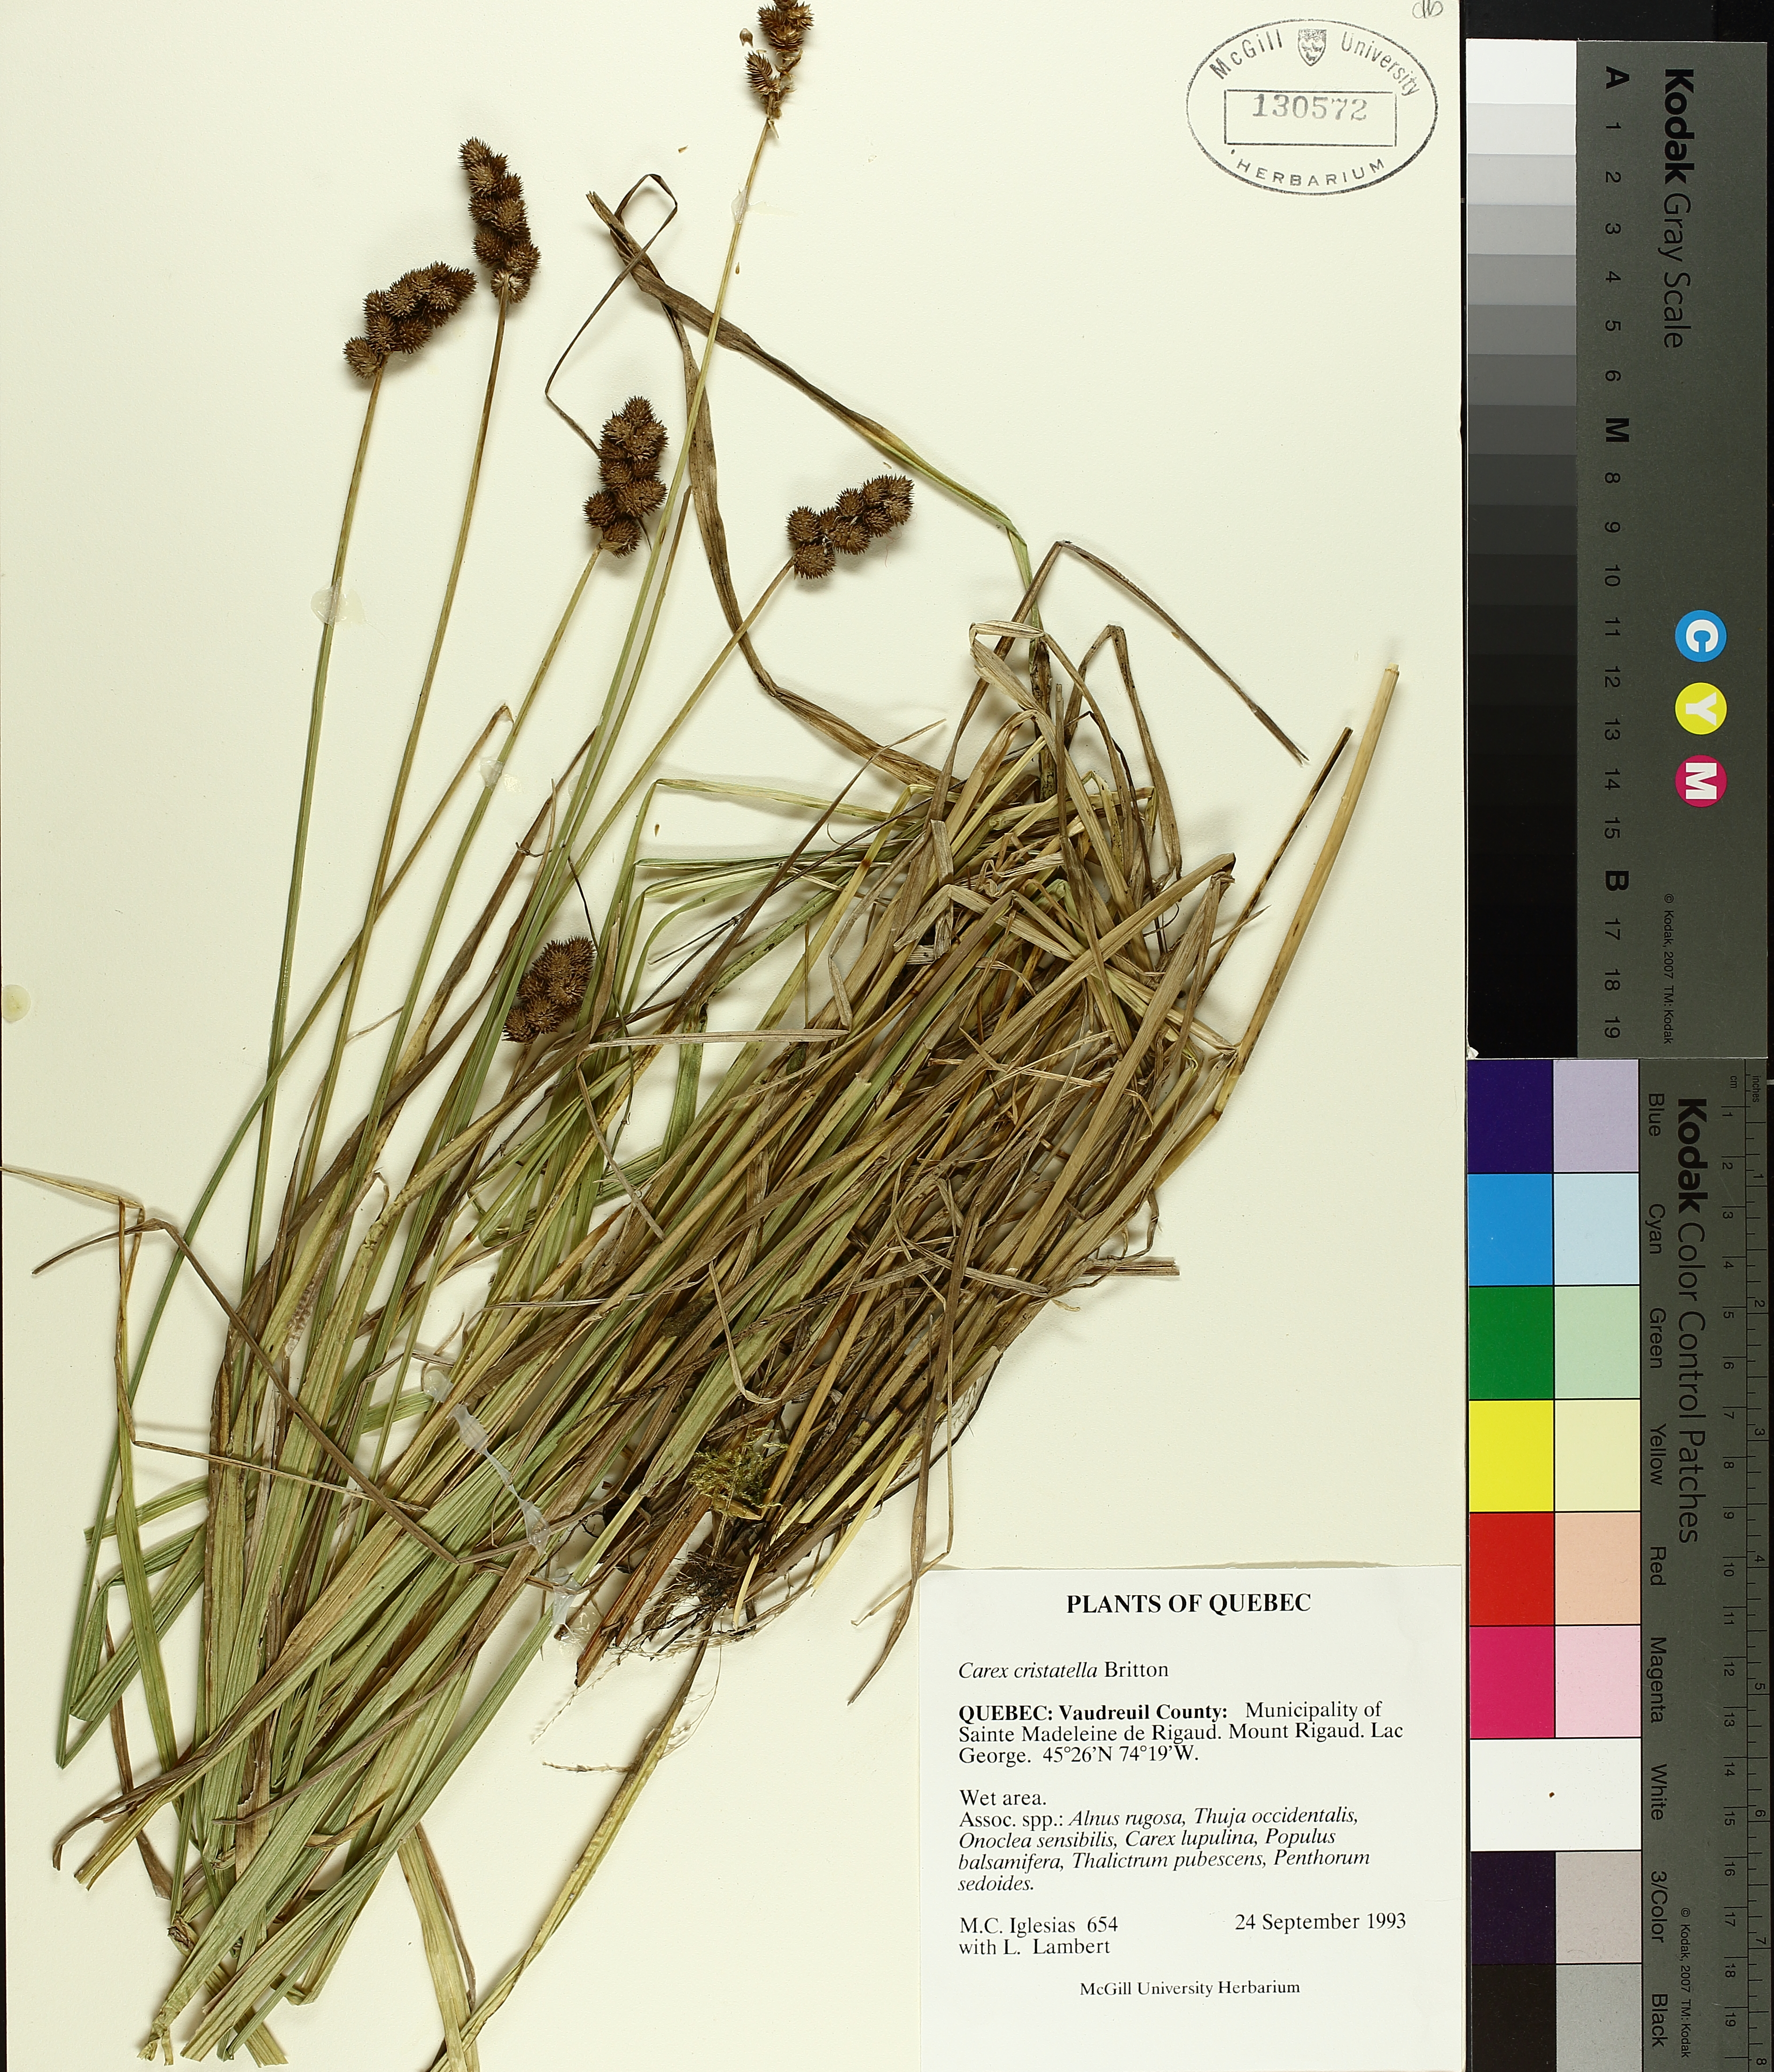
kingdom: Plantae
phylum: Tracheophyta
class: Liliopsida
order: Poales
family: Cyperaceae
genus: Carex
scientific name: Carex cristatella
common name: Crested oval sedge
